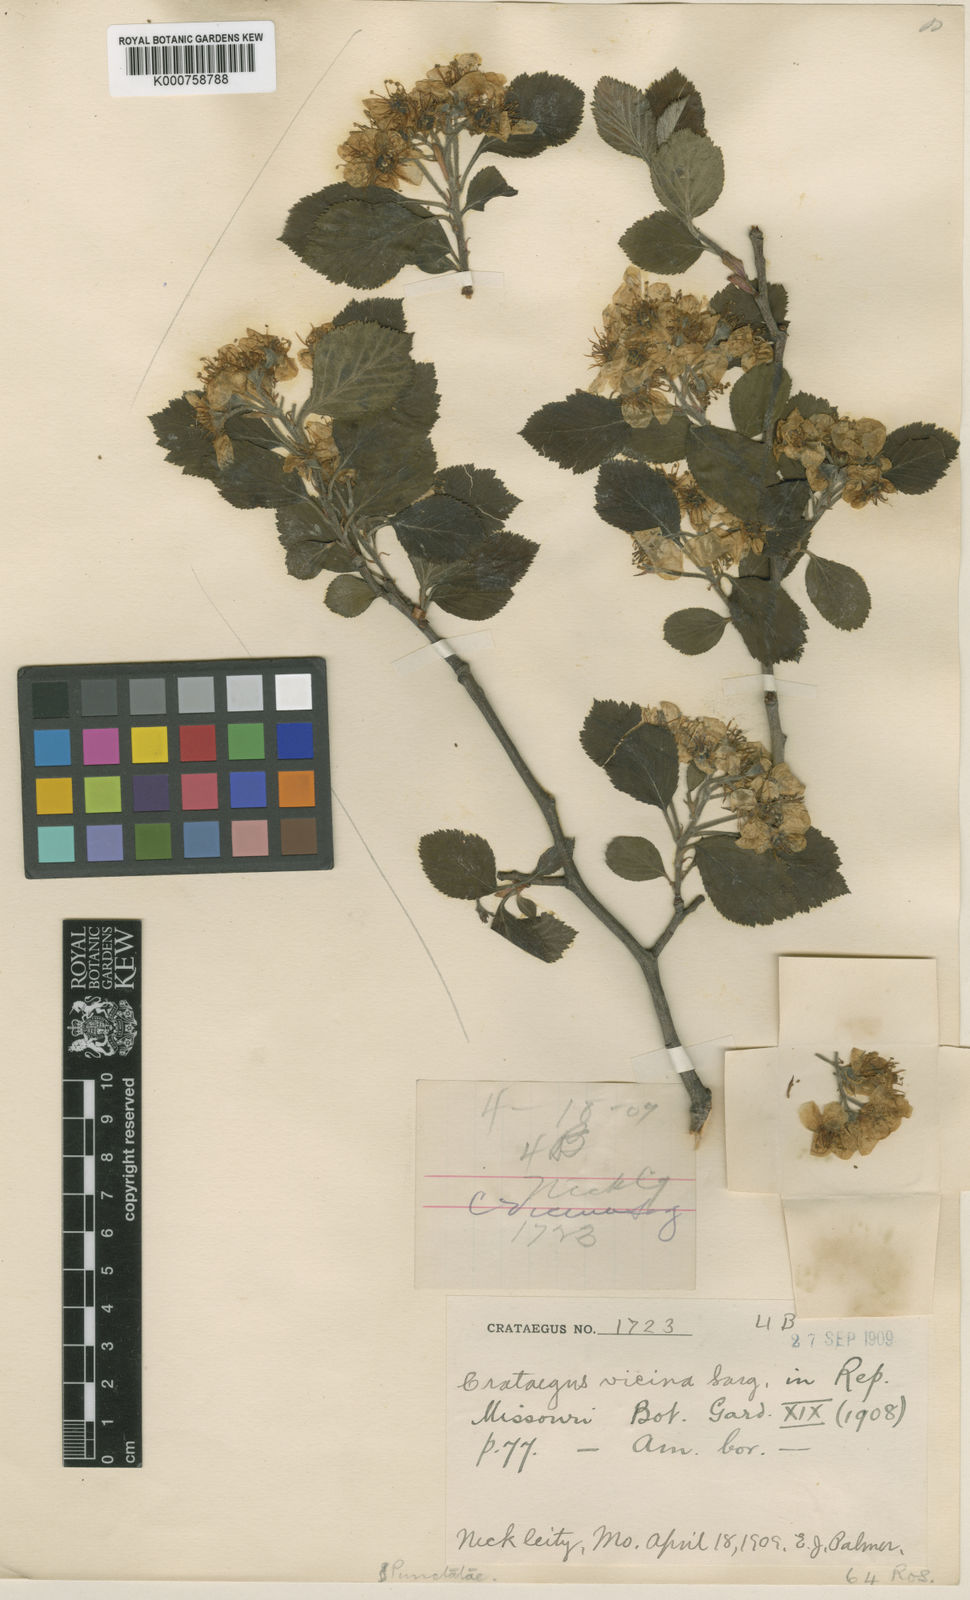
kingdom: Plantae
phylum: Tracheophyta
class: Magnoliopsida
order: Rosales
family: Rosaceae
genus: Crataegus
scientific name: Crataegus vicina
